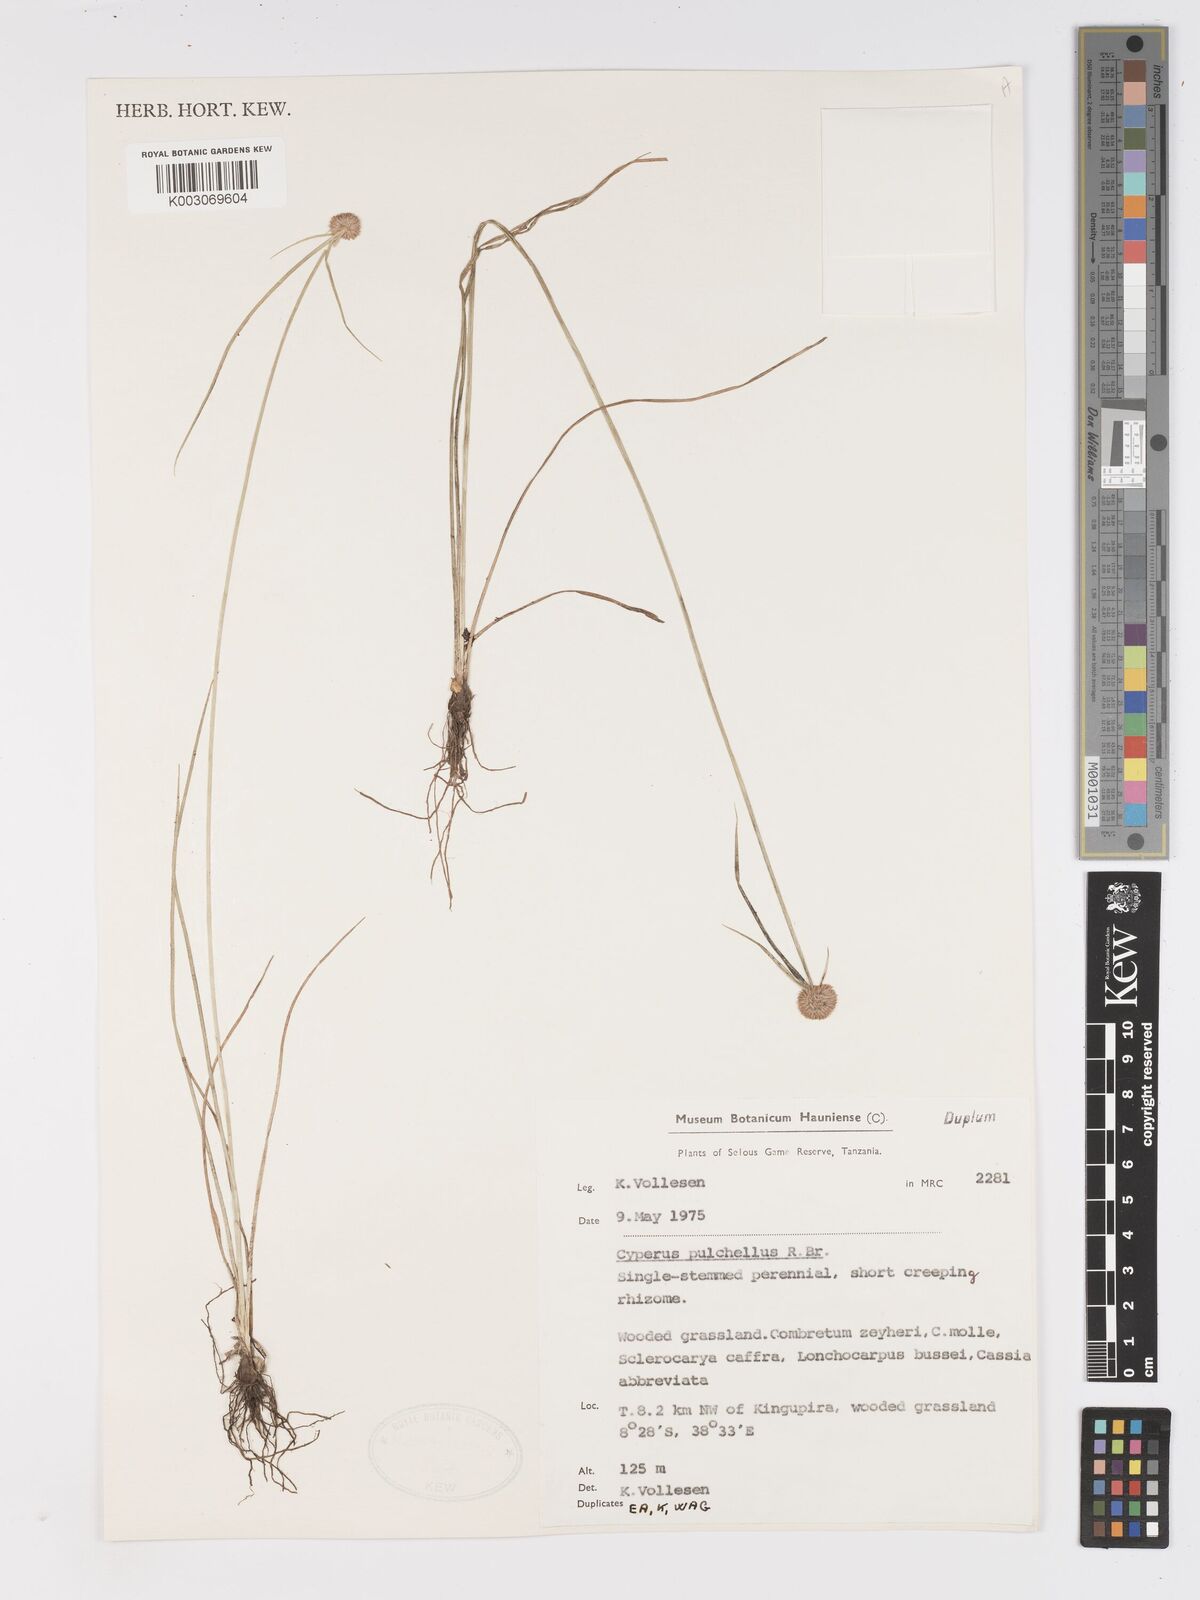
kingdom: Plantae
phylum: Tracheophyta
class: Liliopsida
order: Poales
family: Cyperaceae
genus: Cyperus
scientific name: Cyperus pulchellus
